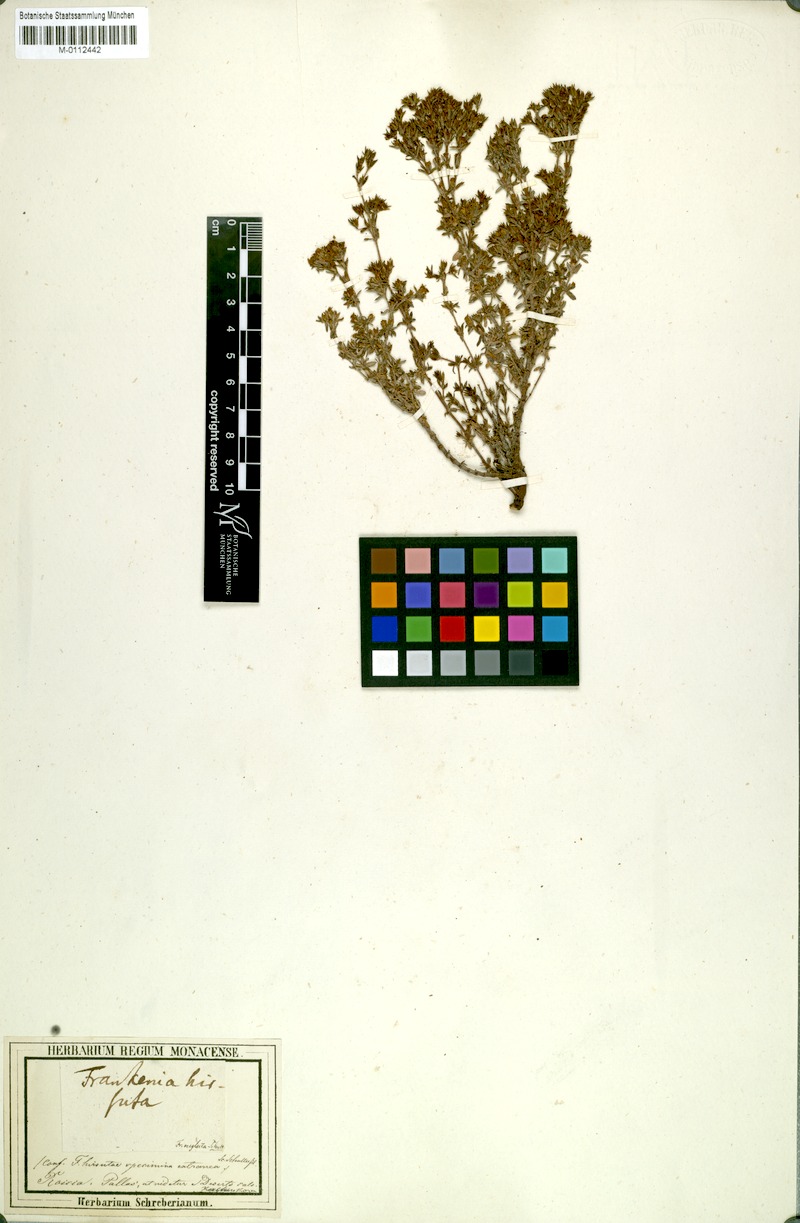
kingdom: Plantae
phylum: Tracheophyta
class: Magnoliopsida
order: Caryophyllales
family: Frankeniaceae
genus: Frankenia
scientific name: Frankenia neglecta
